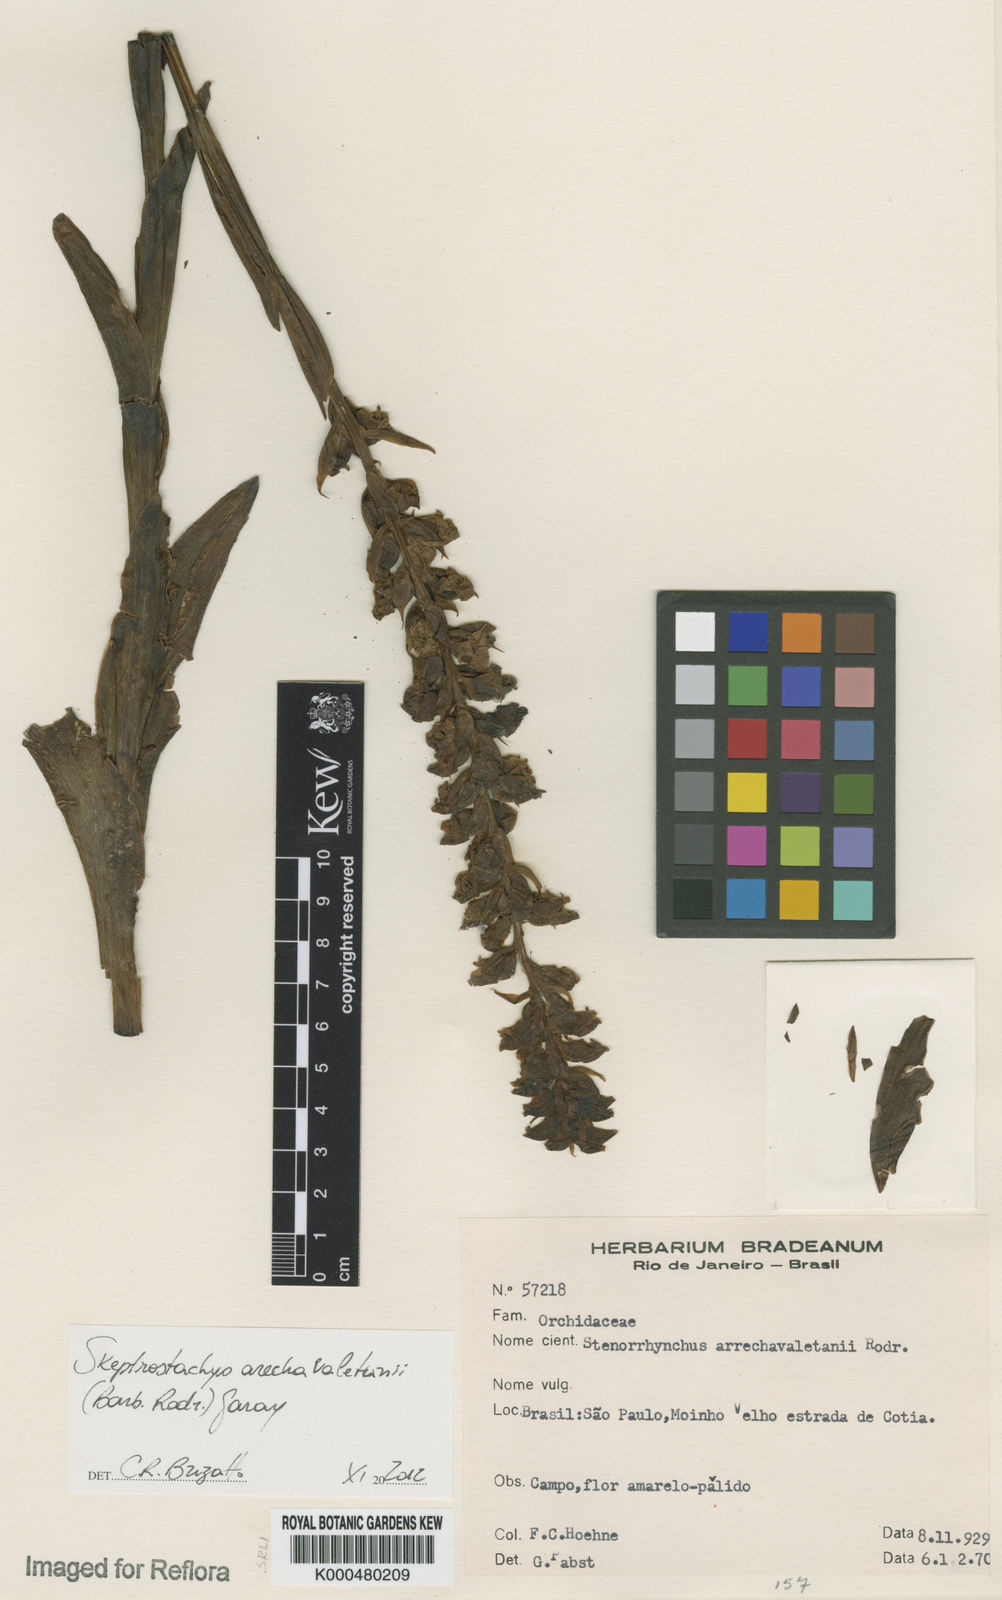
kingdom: Plantae
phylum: Tracheophyta
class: Liliopsida
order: Asparagales
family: Orchidaceae
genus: Skeptrostachys
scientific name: Skeptrostachys arechavaletanii
